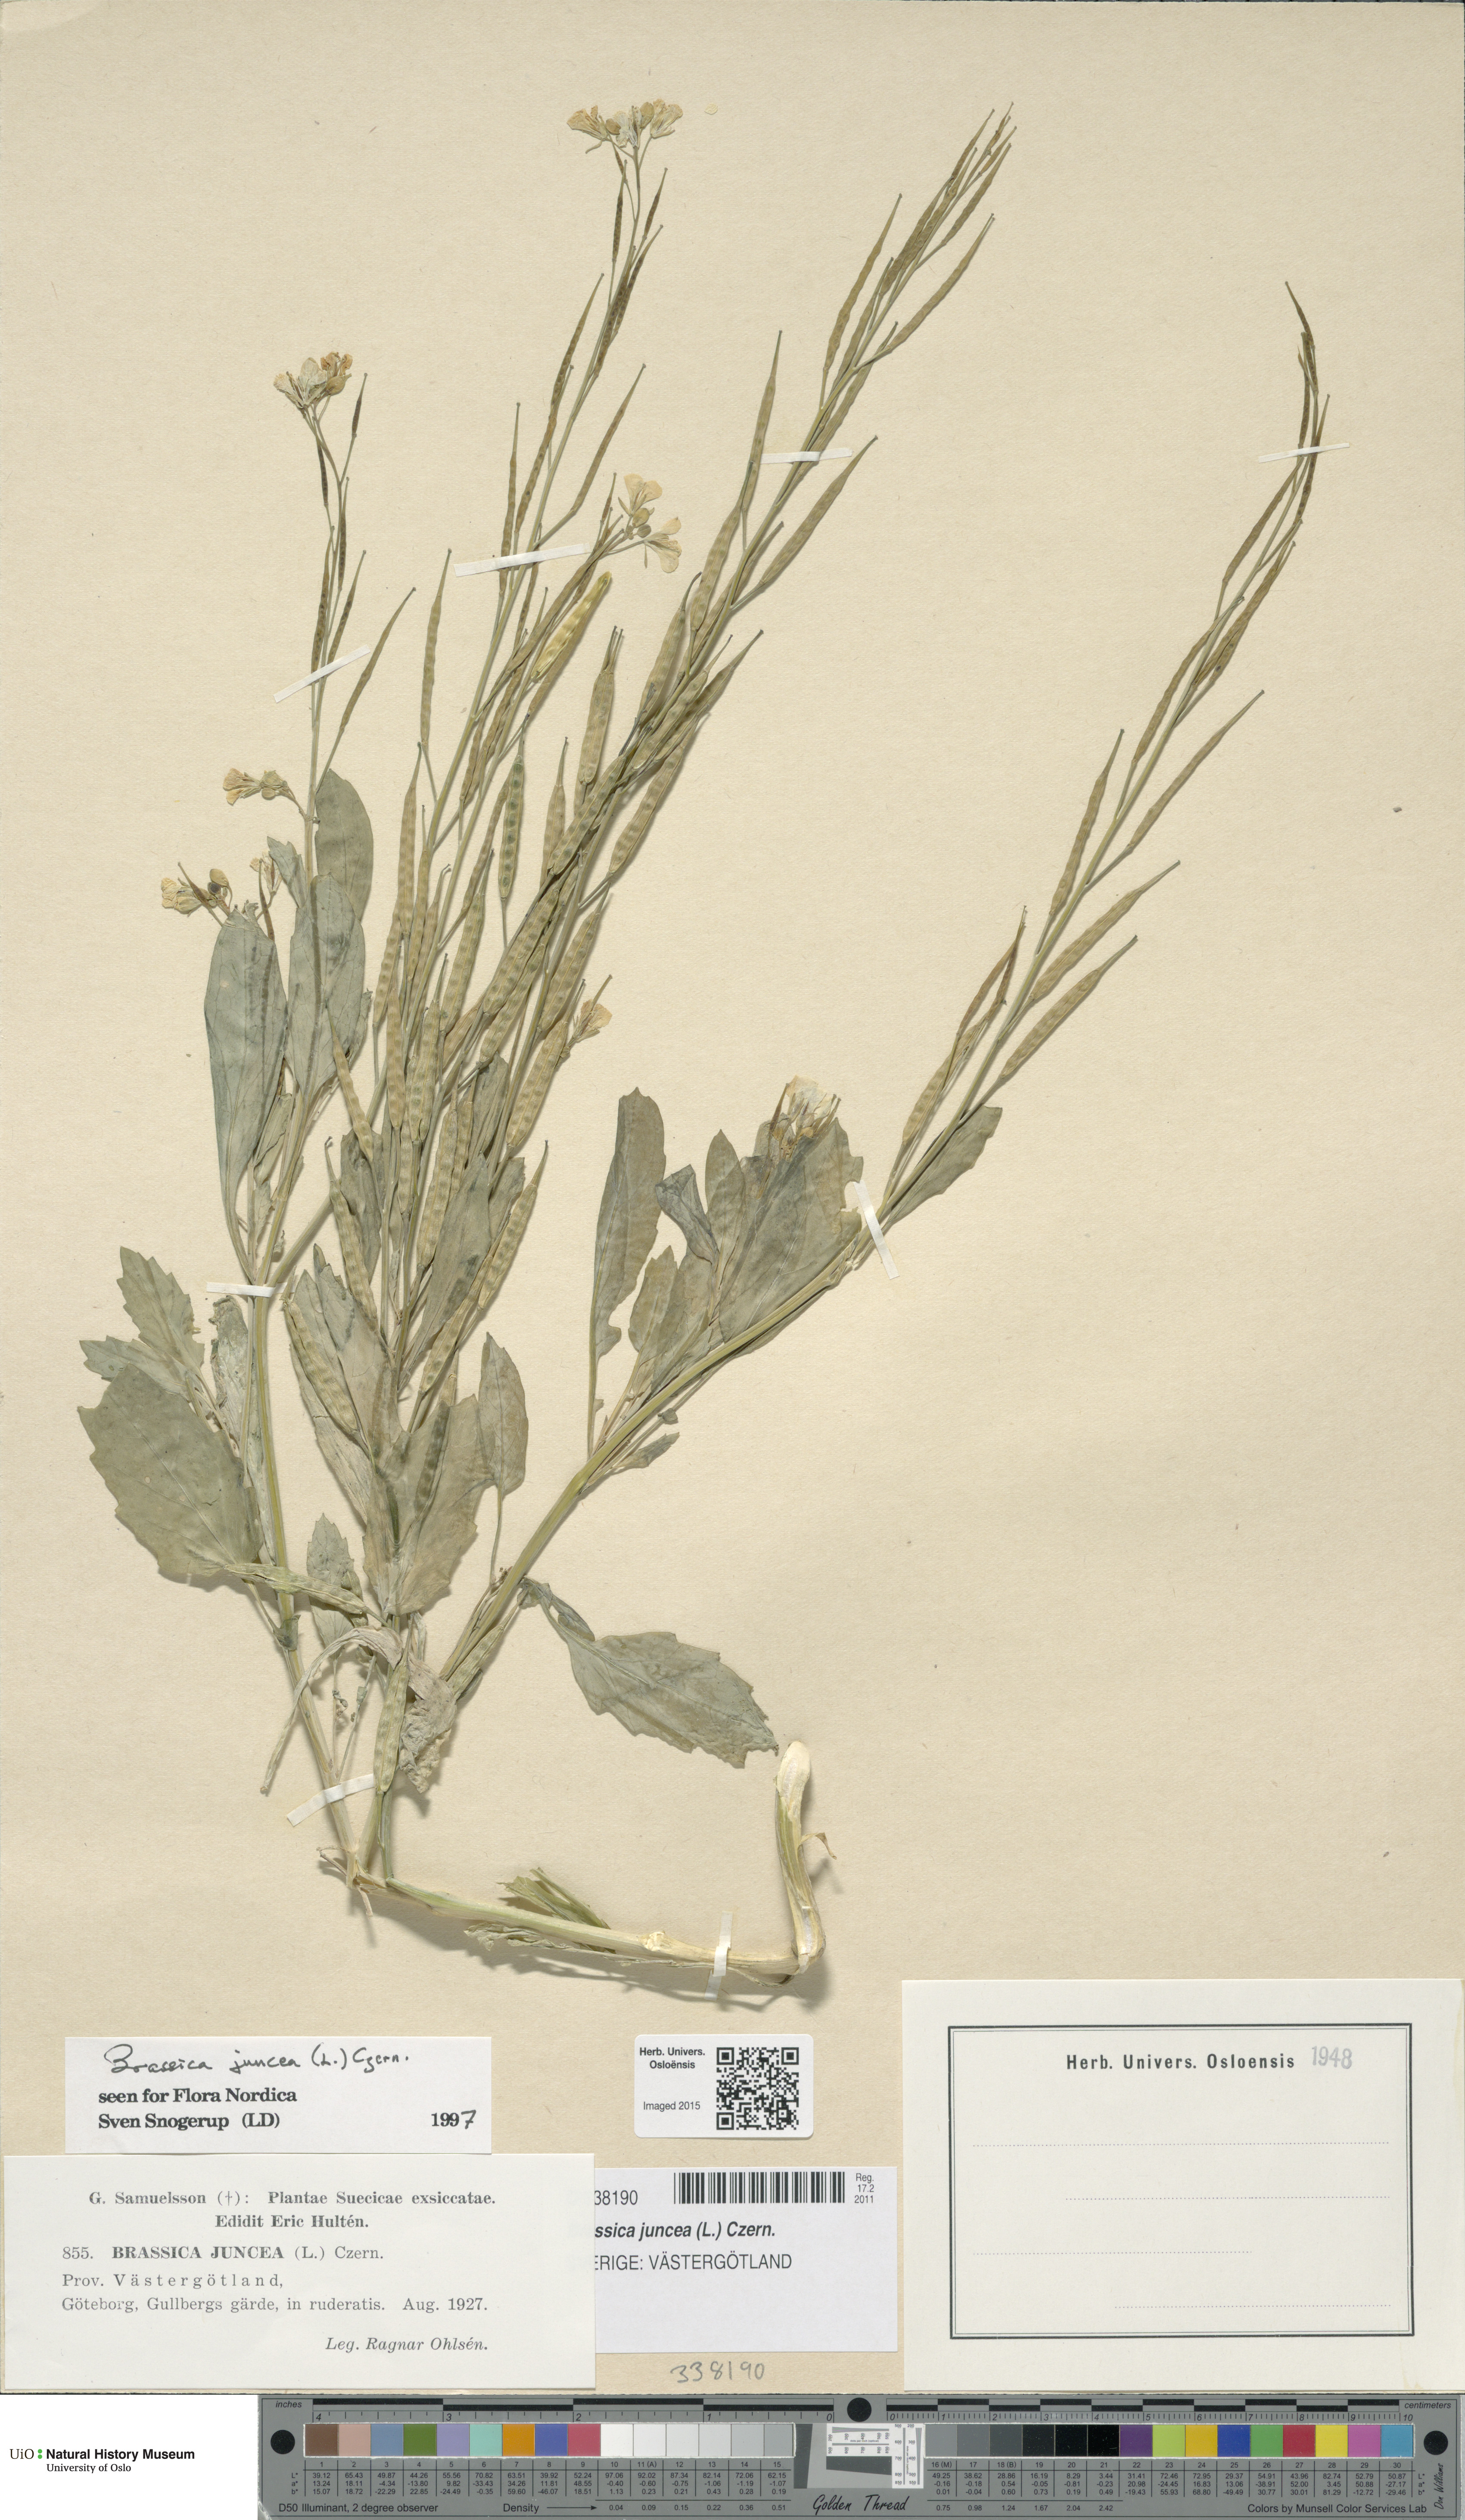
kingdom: Plantae
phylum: Tracheophyta
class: Magnoliopsida
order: Brassicales
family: Brassicaceae
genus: Brassica
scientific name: Brassica juncea
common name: Brown mustard
